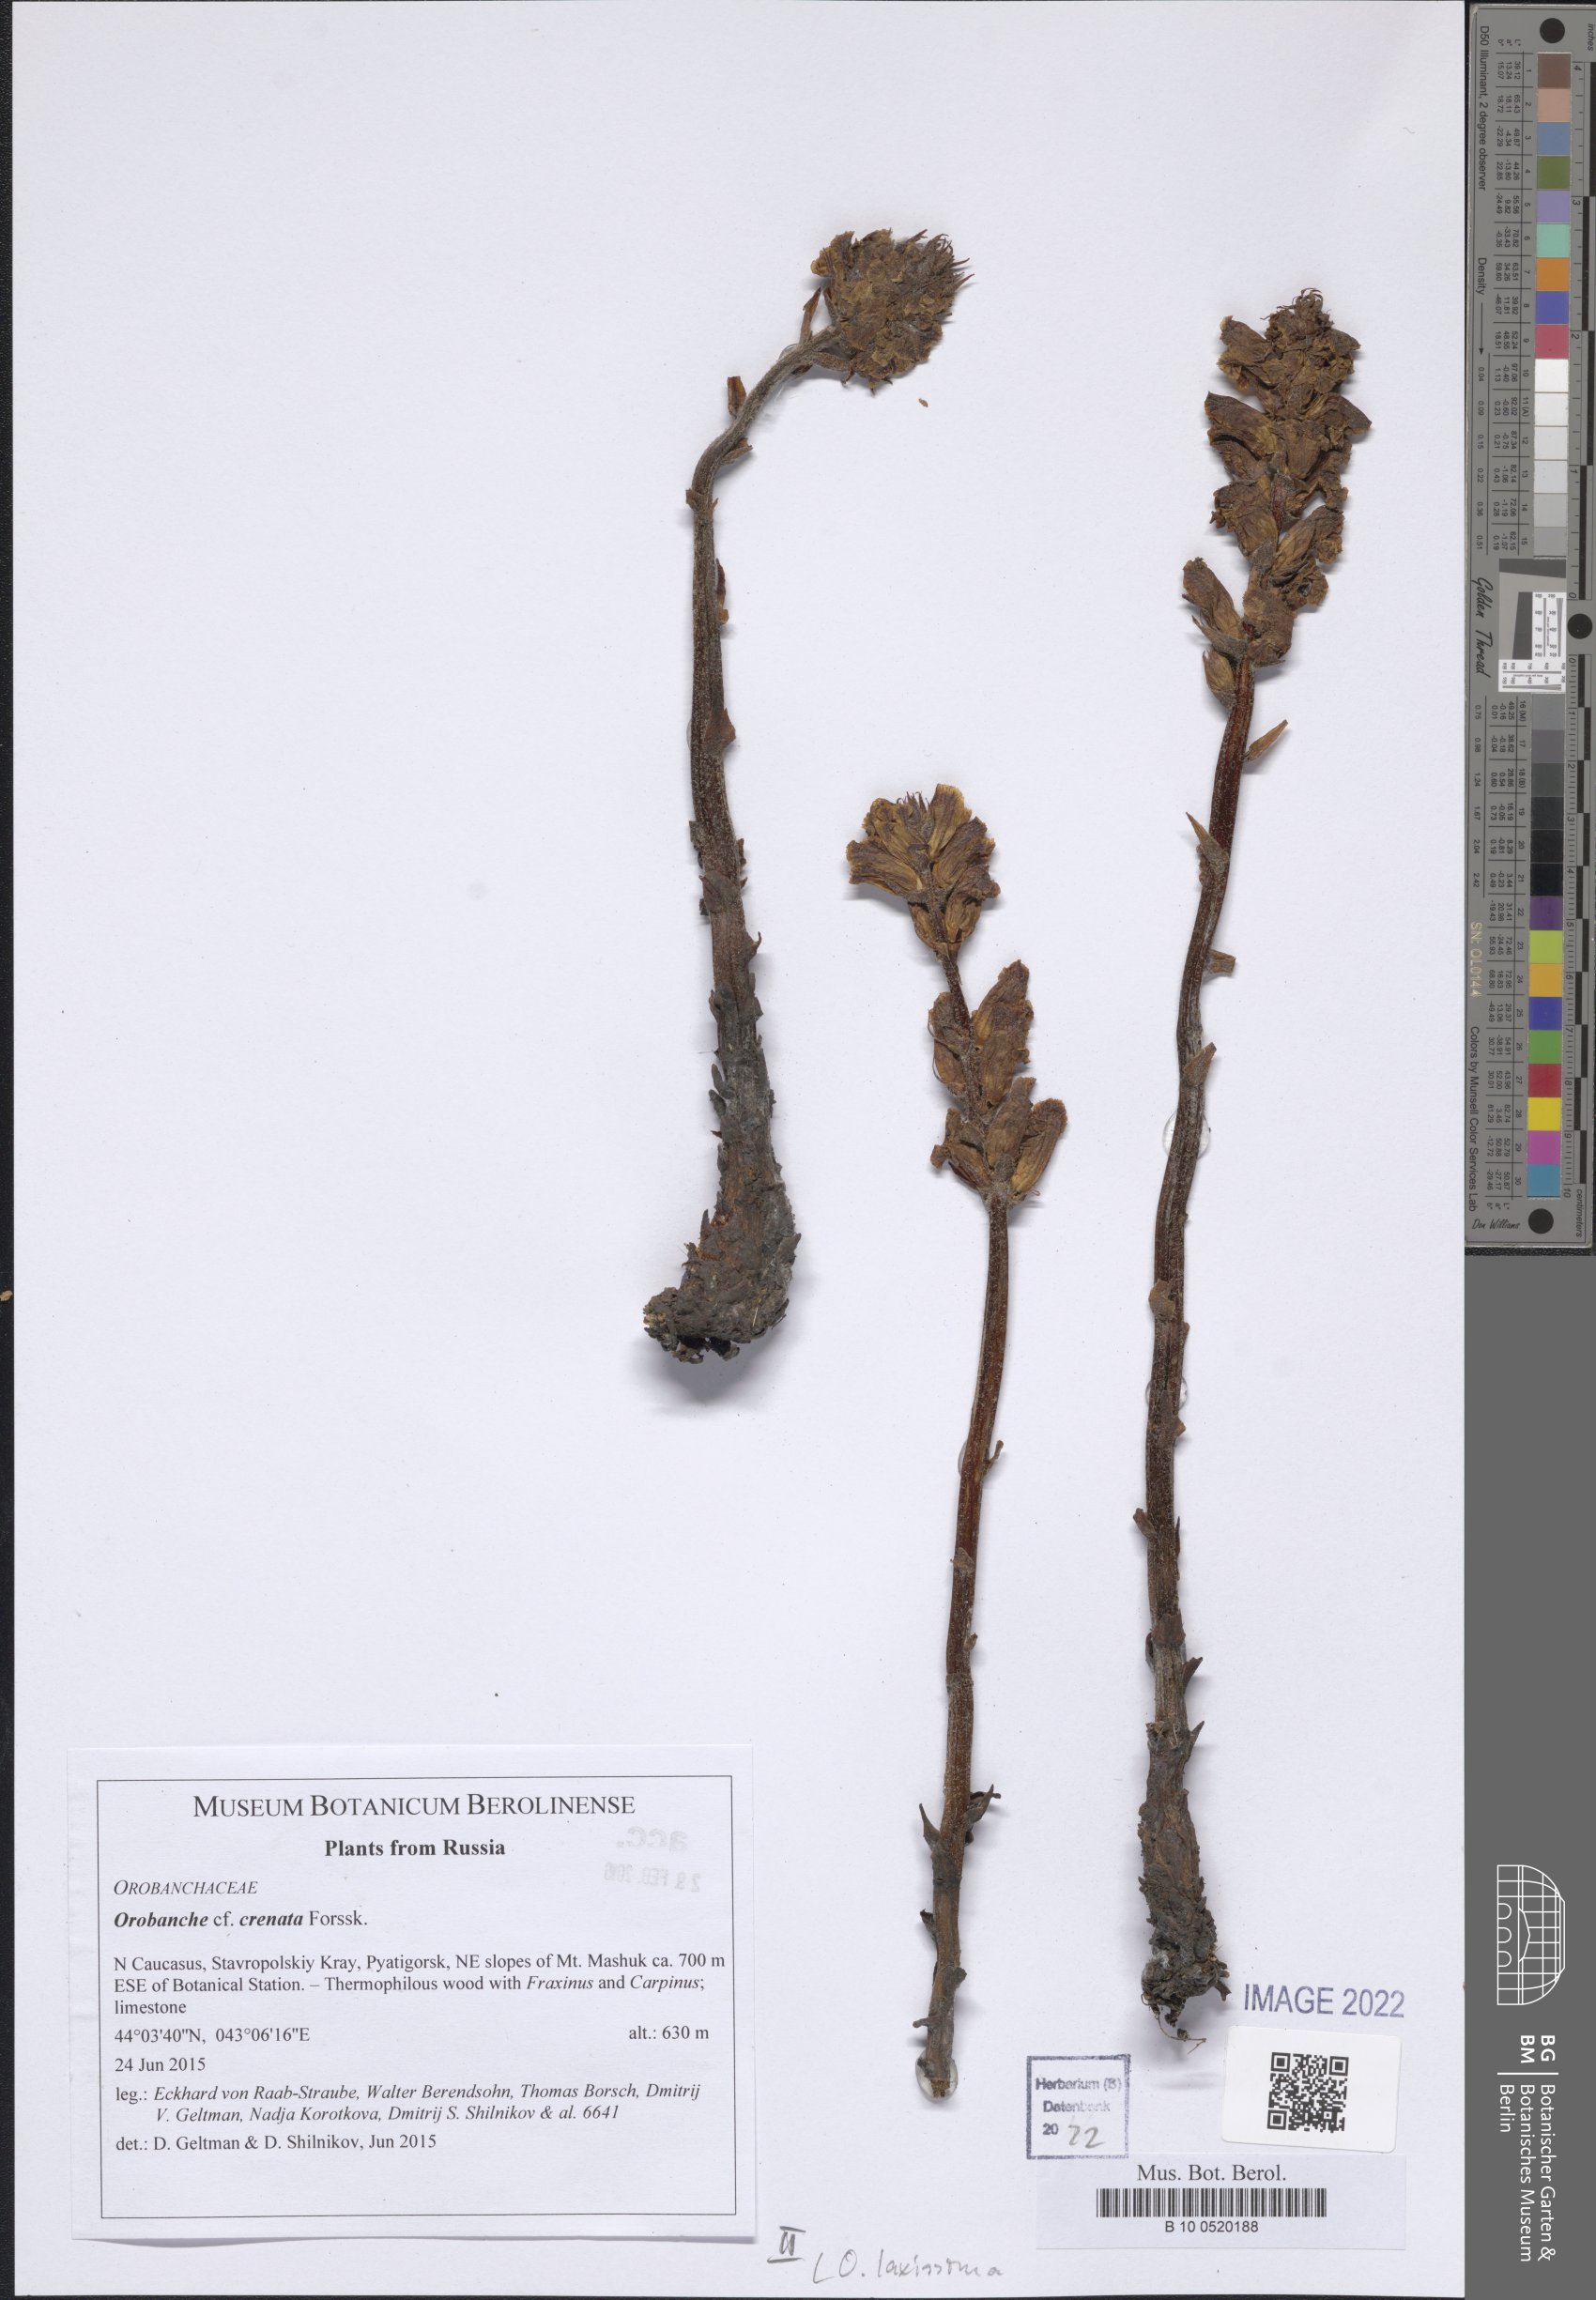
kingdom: Plantae
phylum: Tracheophyta
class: Magnoliopsida
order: Lamiales
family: Orobanchaceae
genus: Orobanche
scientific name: Orobanche laxissima
